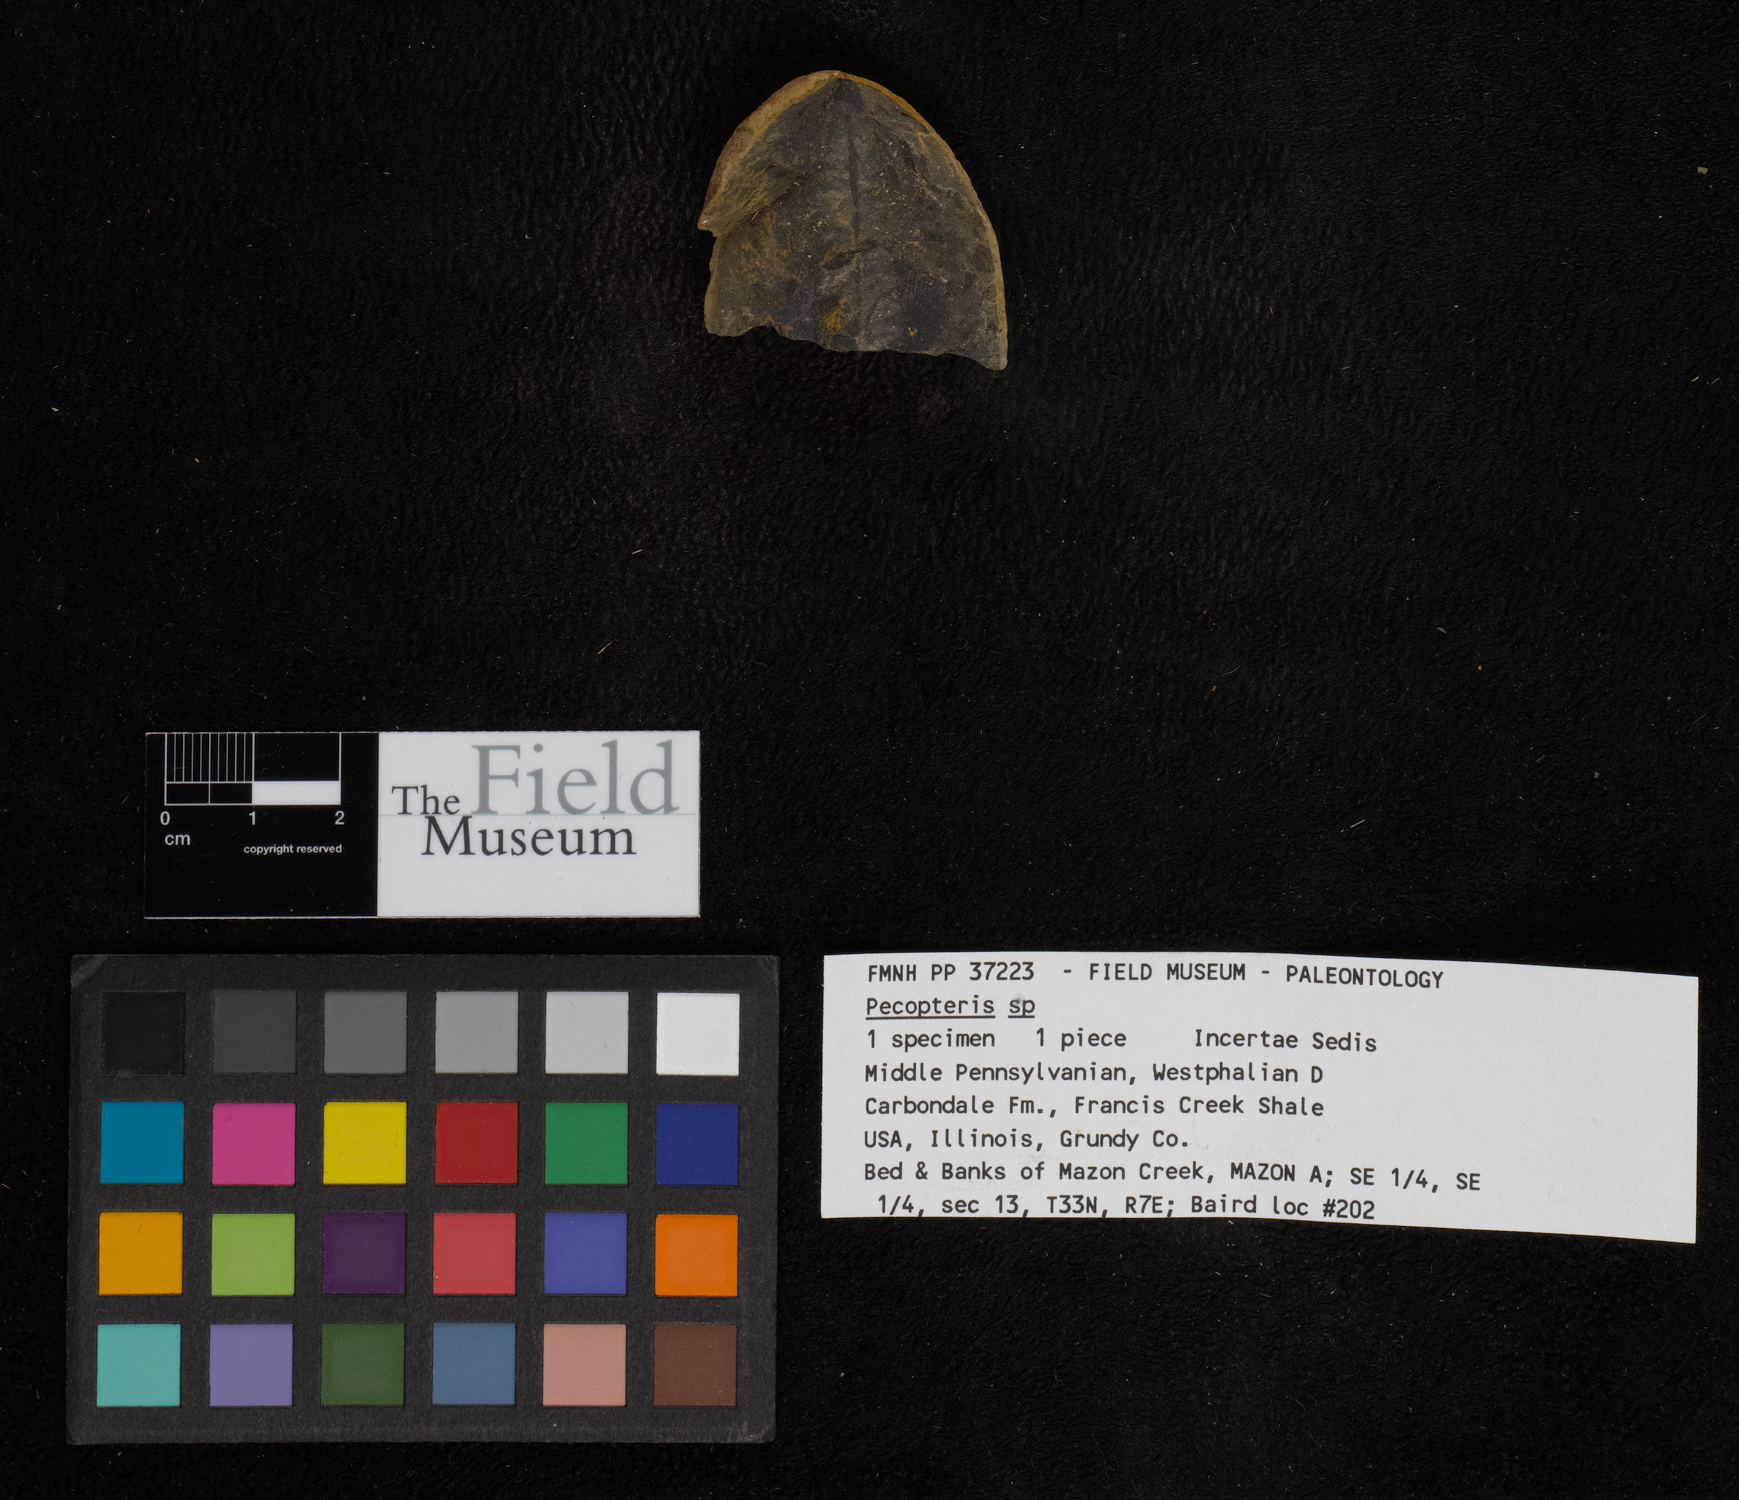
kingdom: Plantae
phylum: Tracheophyta
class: Polypodiopsida
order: Marattiales
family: Asterothecaceae
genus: Pecopteris
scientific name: Pecopteris
